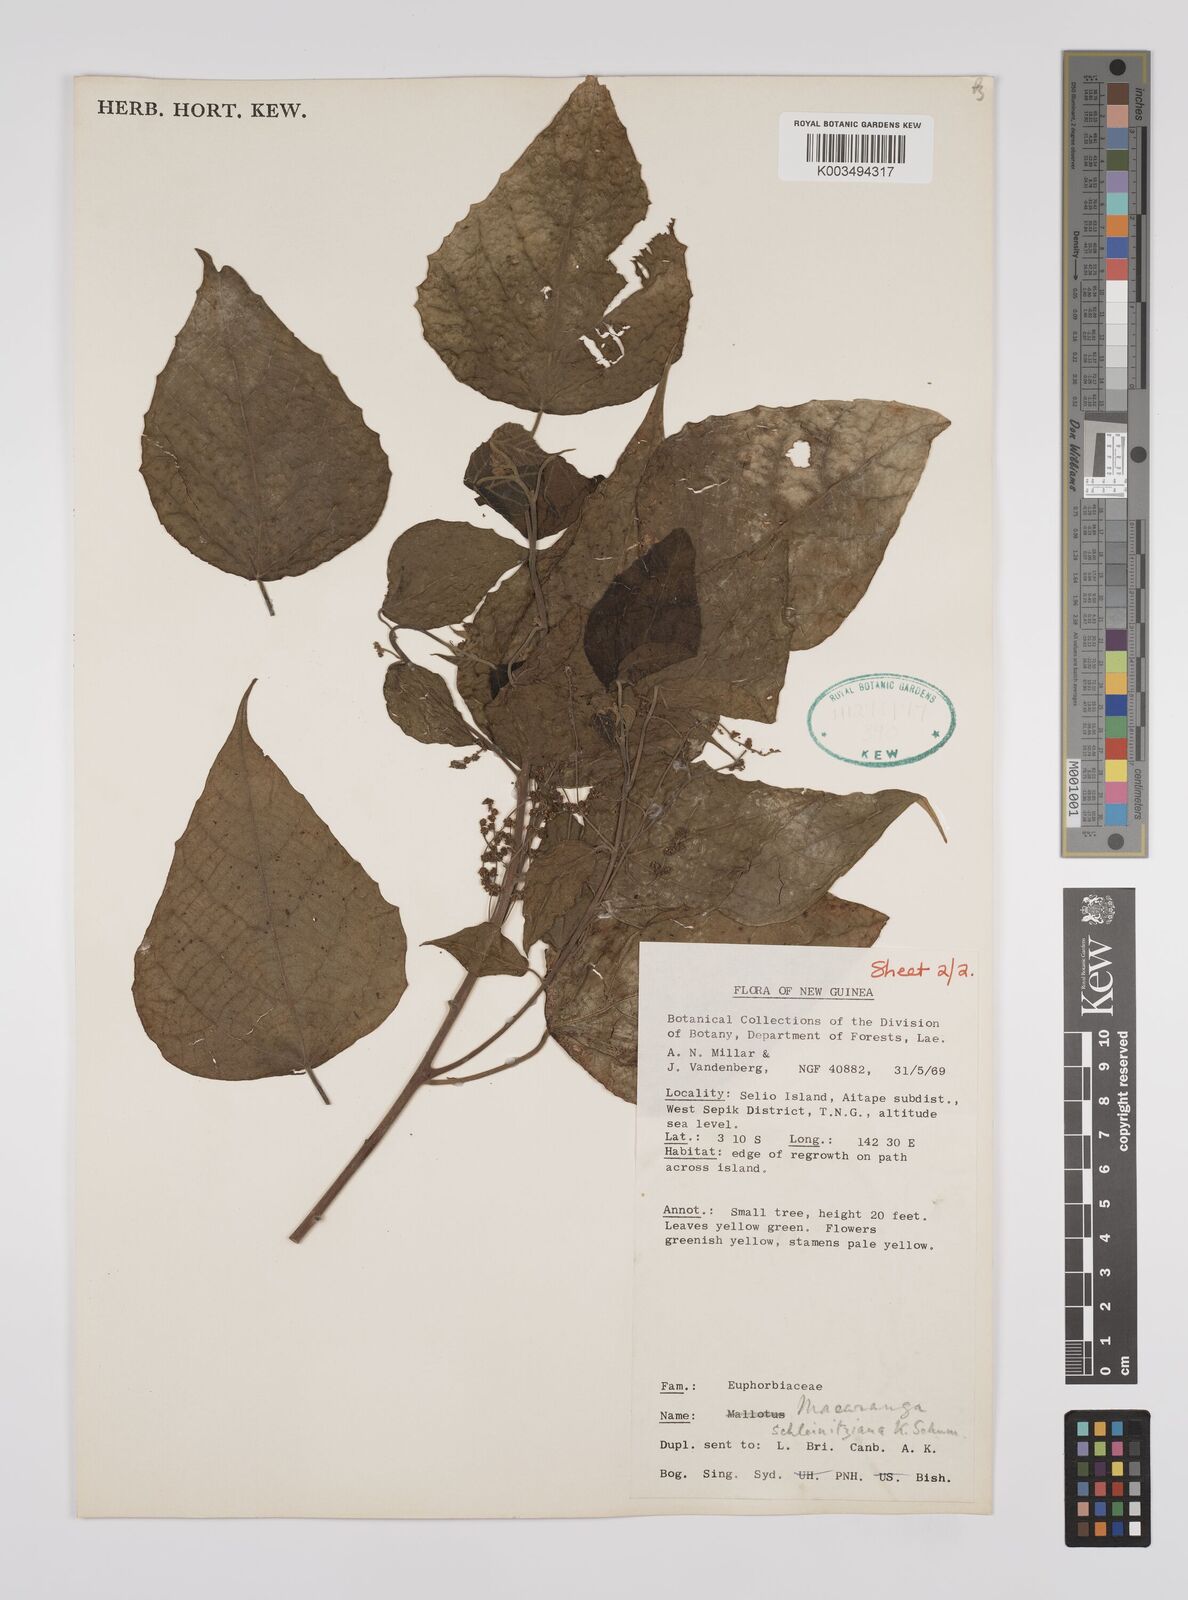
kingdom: Plantae
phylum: Tracheophyta
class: Magnoliopsida
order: Malpighiales
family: Euphorbiaceae
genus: Macaranga
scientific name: Macaranga involucrata
